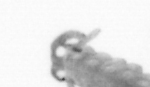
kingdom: Animalia
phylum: Annelida
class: Polychaeta
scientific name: Polychaeta
